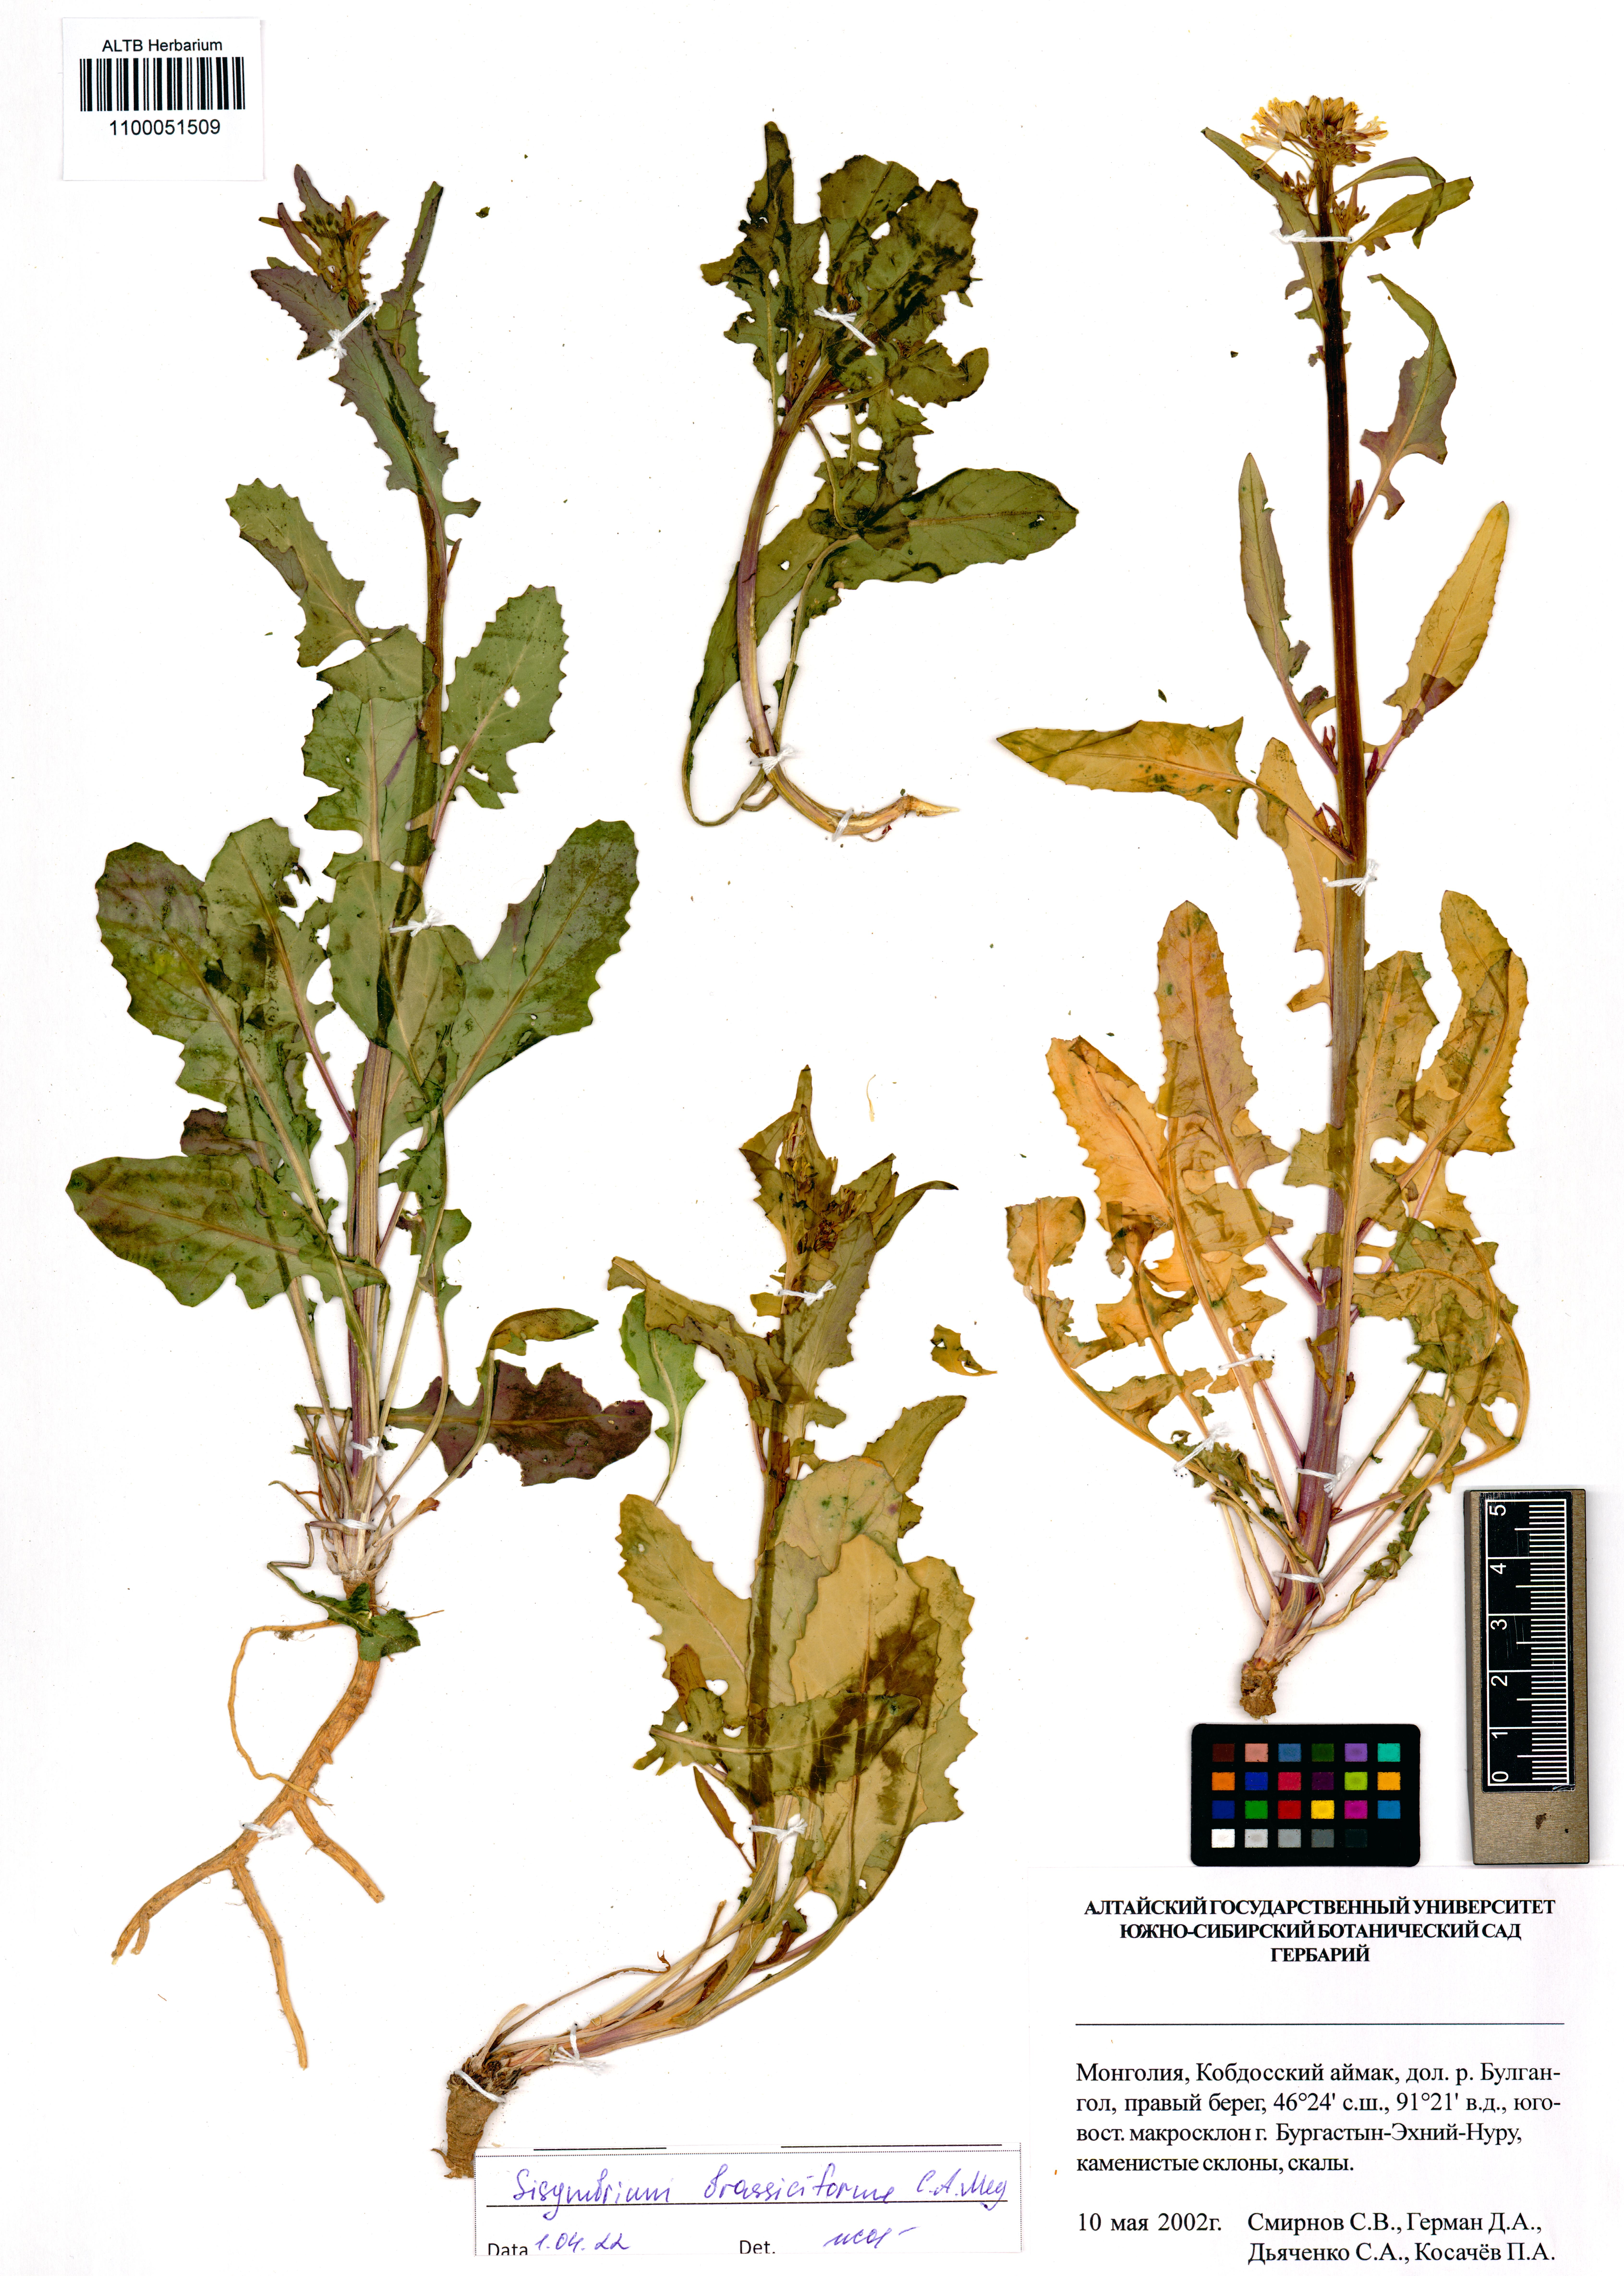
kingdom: Plantae
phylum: Tracheophyta
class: Magnoliopsida
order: Brassicales
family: Brassicaceae
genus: Sisymbrium
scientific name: Sisymbrium brassiciforme
